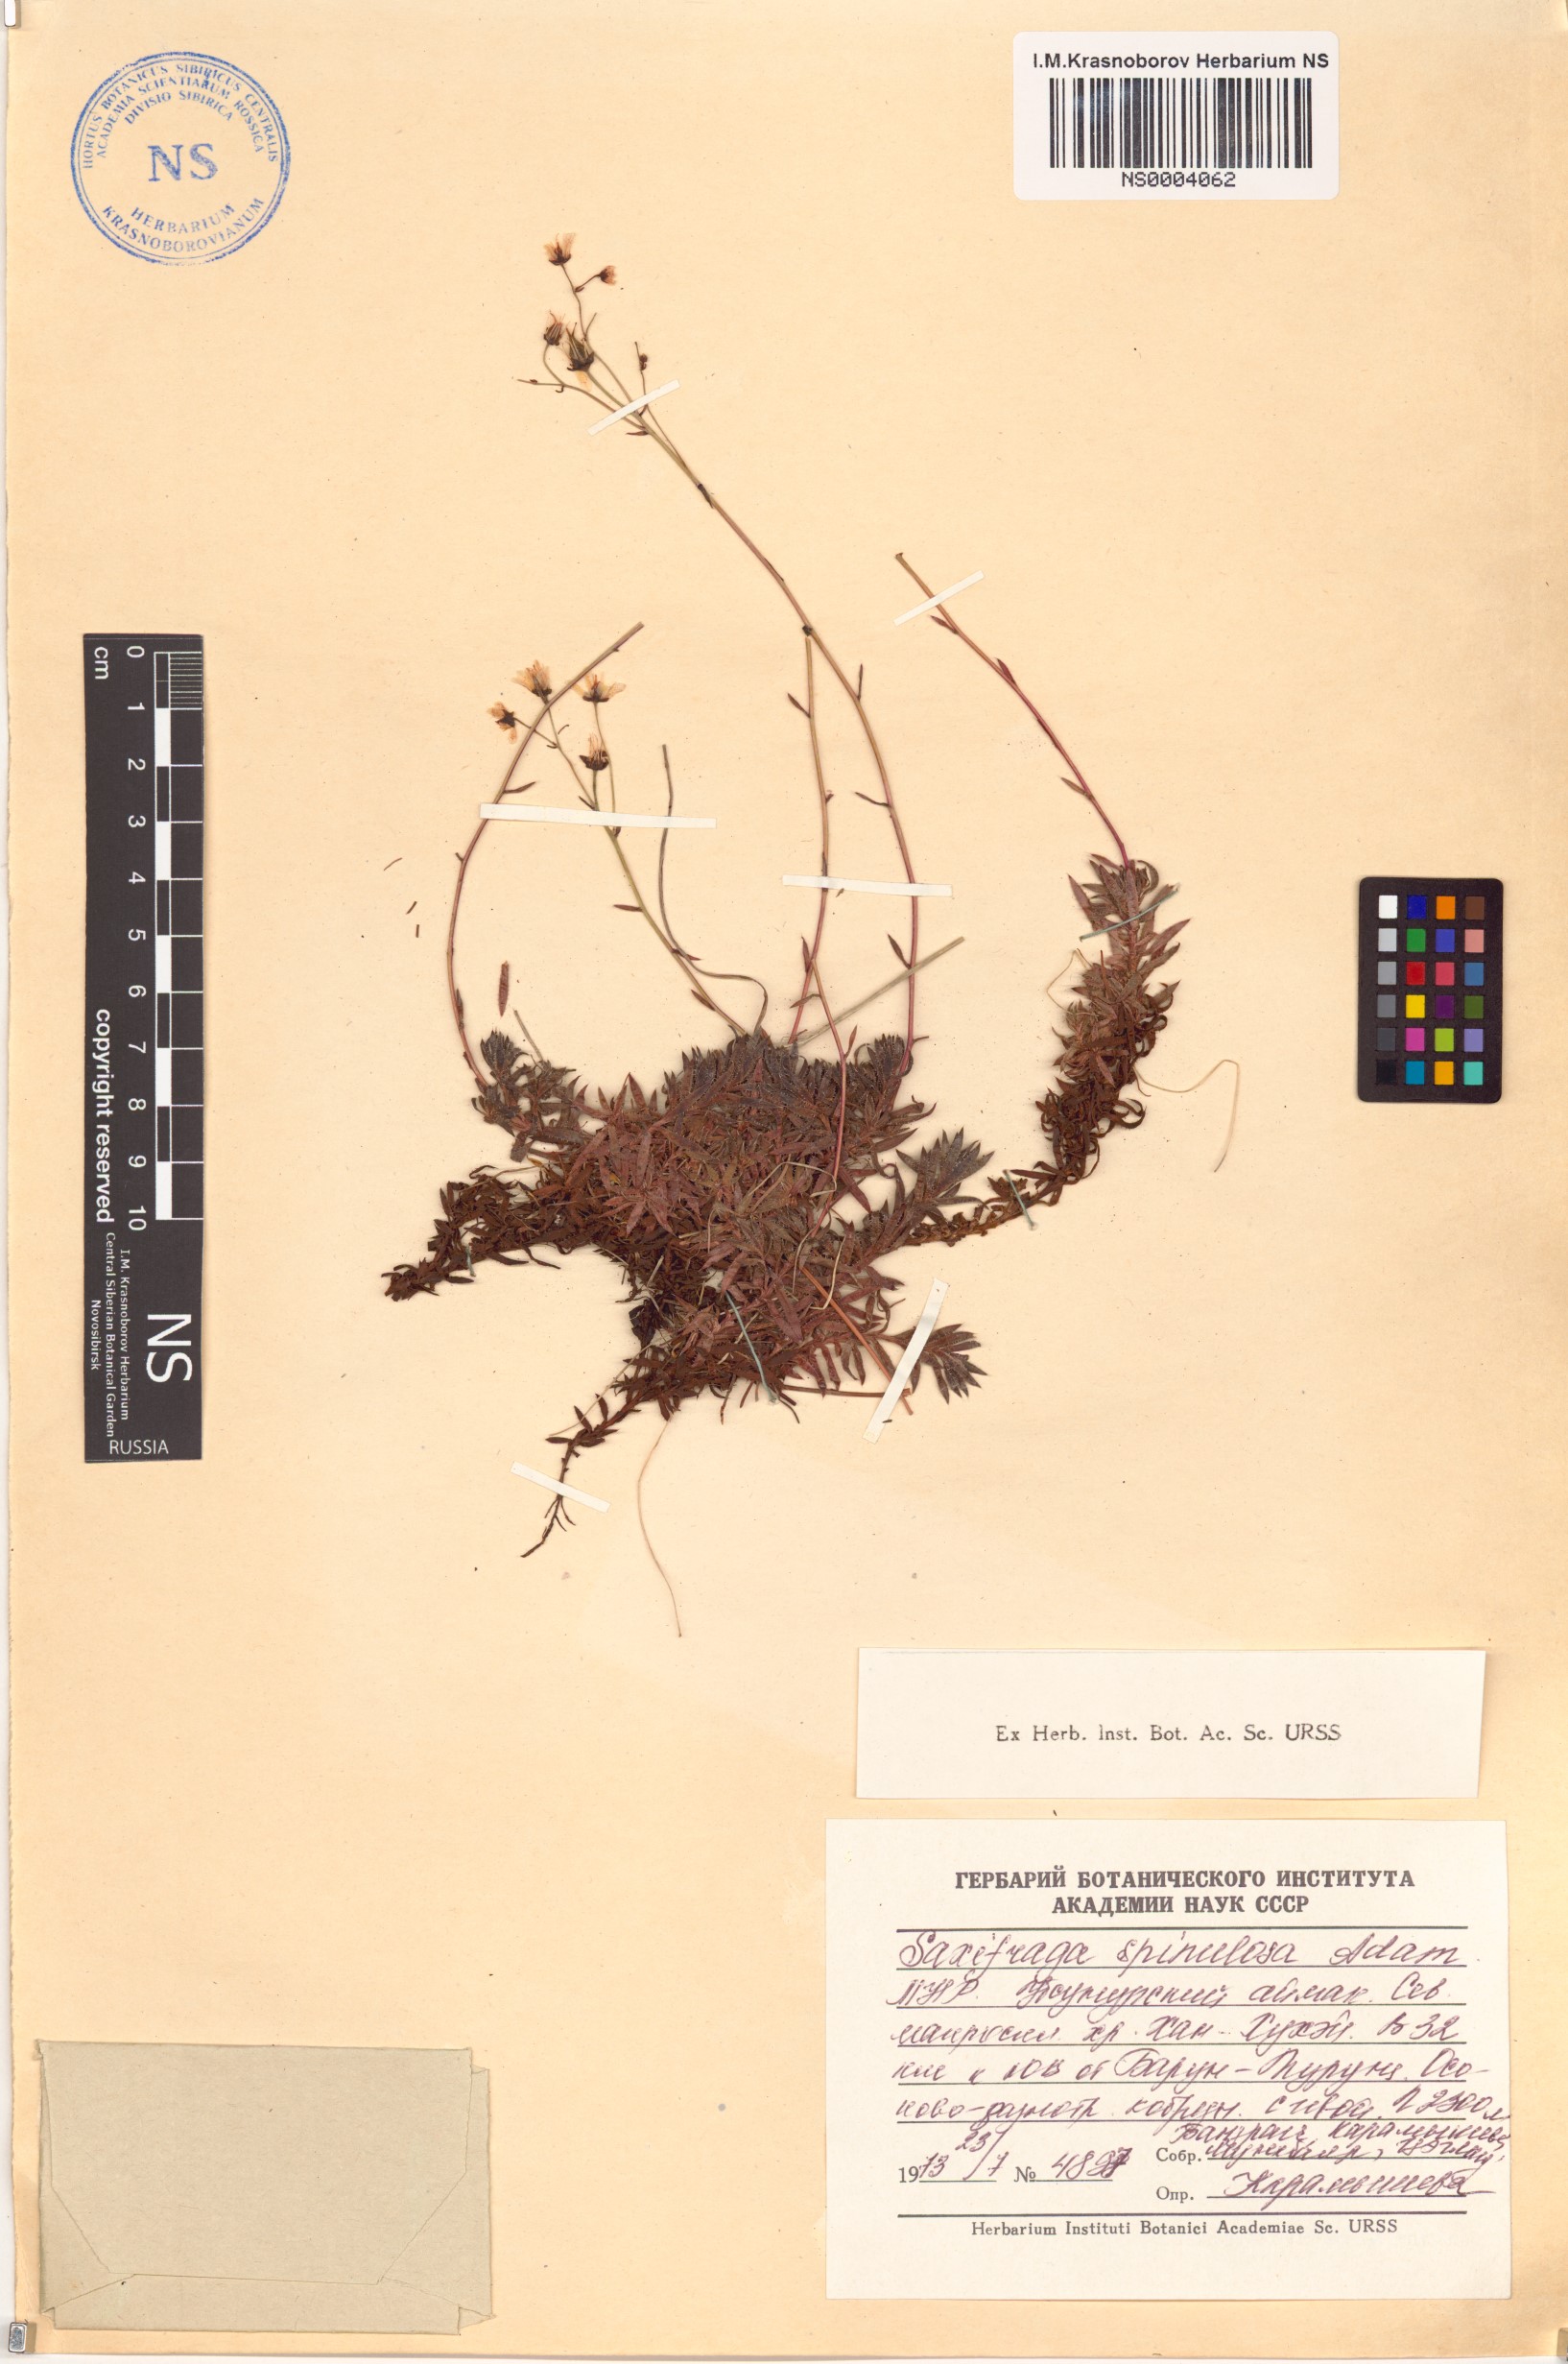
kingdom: Plantae
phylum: Tracheophyta
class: Magnoliopsida
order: Saxifragales
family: Saxifragaceae
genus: Saxifraga
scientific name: Saxifraga bronchialis
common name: Matted saxifrage
